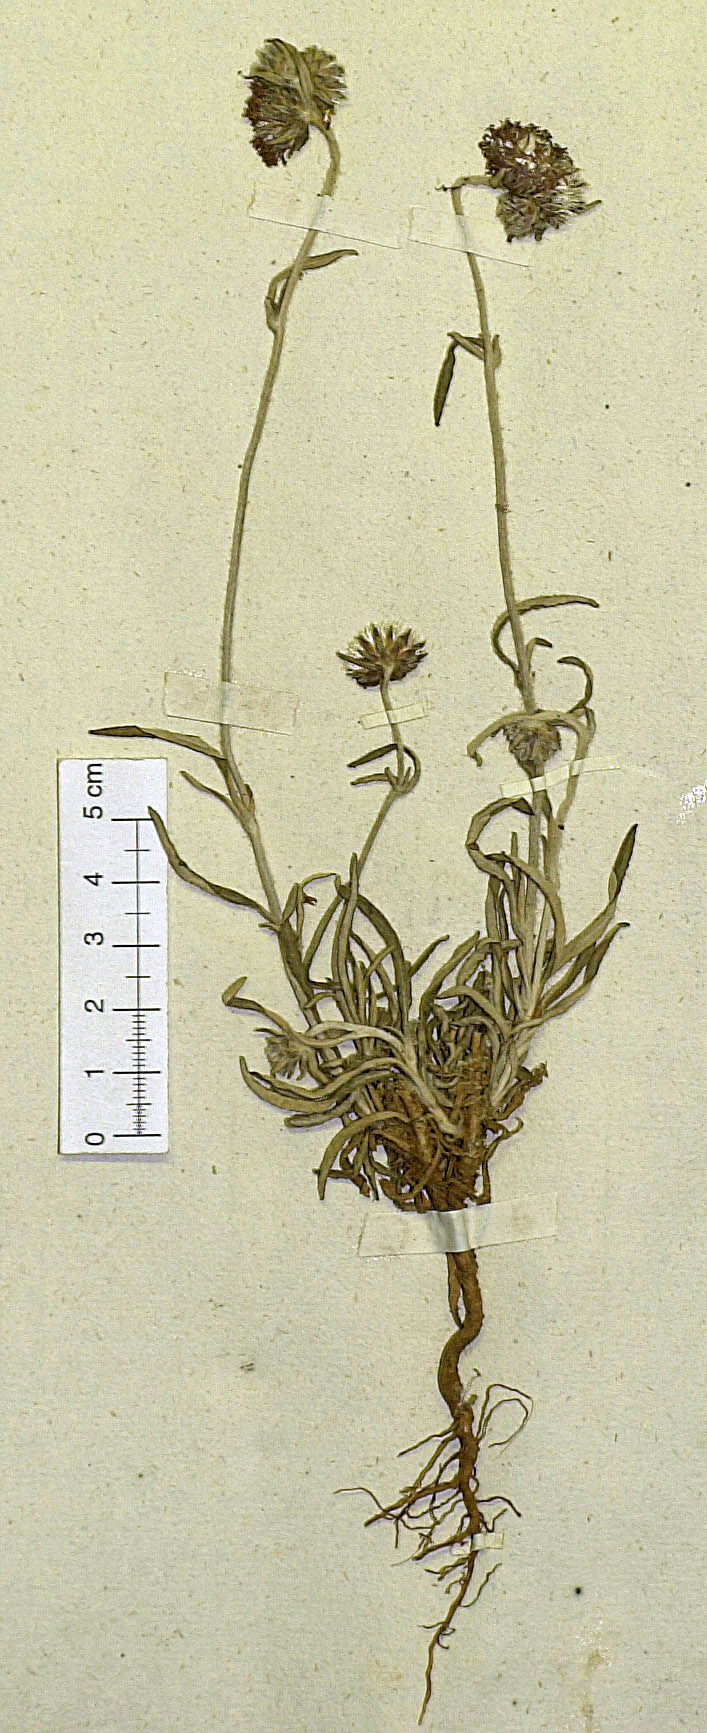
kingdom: Plantae
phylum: Tracheophyta
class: Magnoliopsida
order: Asterales
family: Asteraceae
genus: Stilpnopappus
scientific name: Stilpnopappus tomentosus
